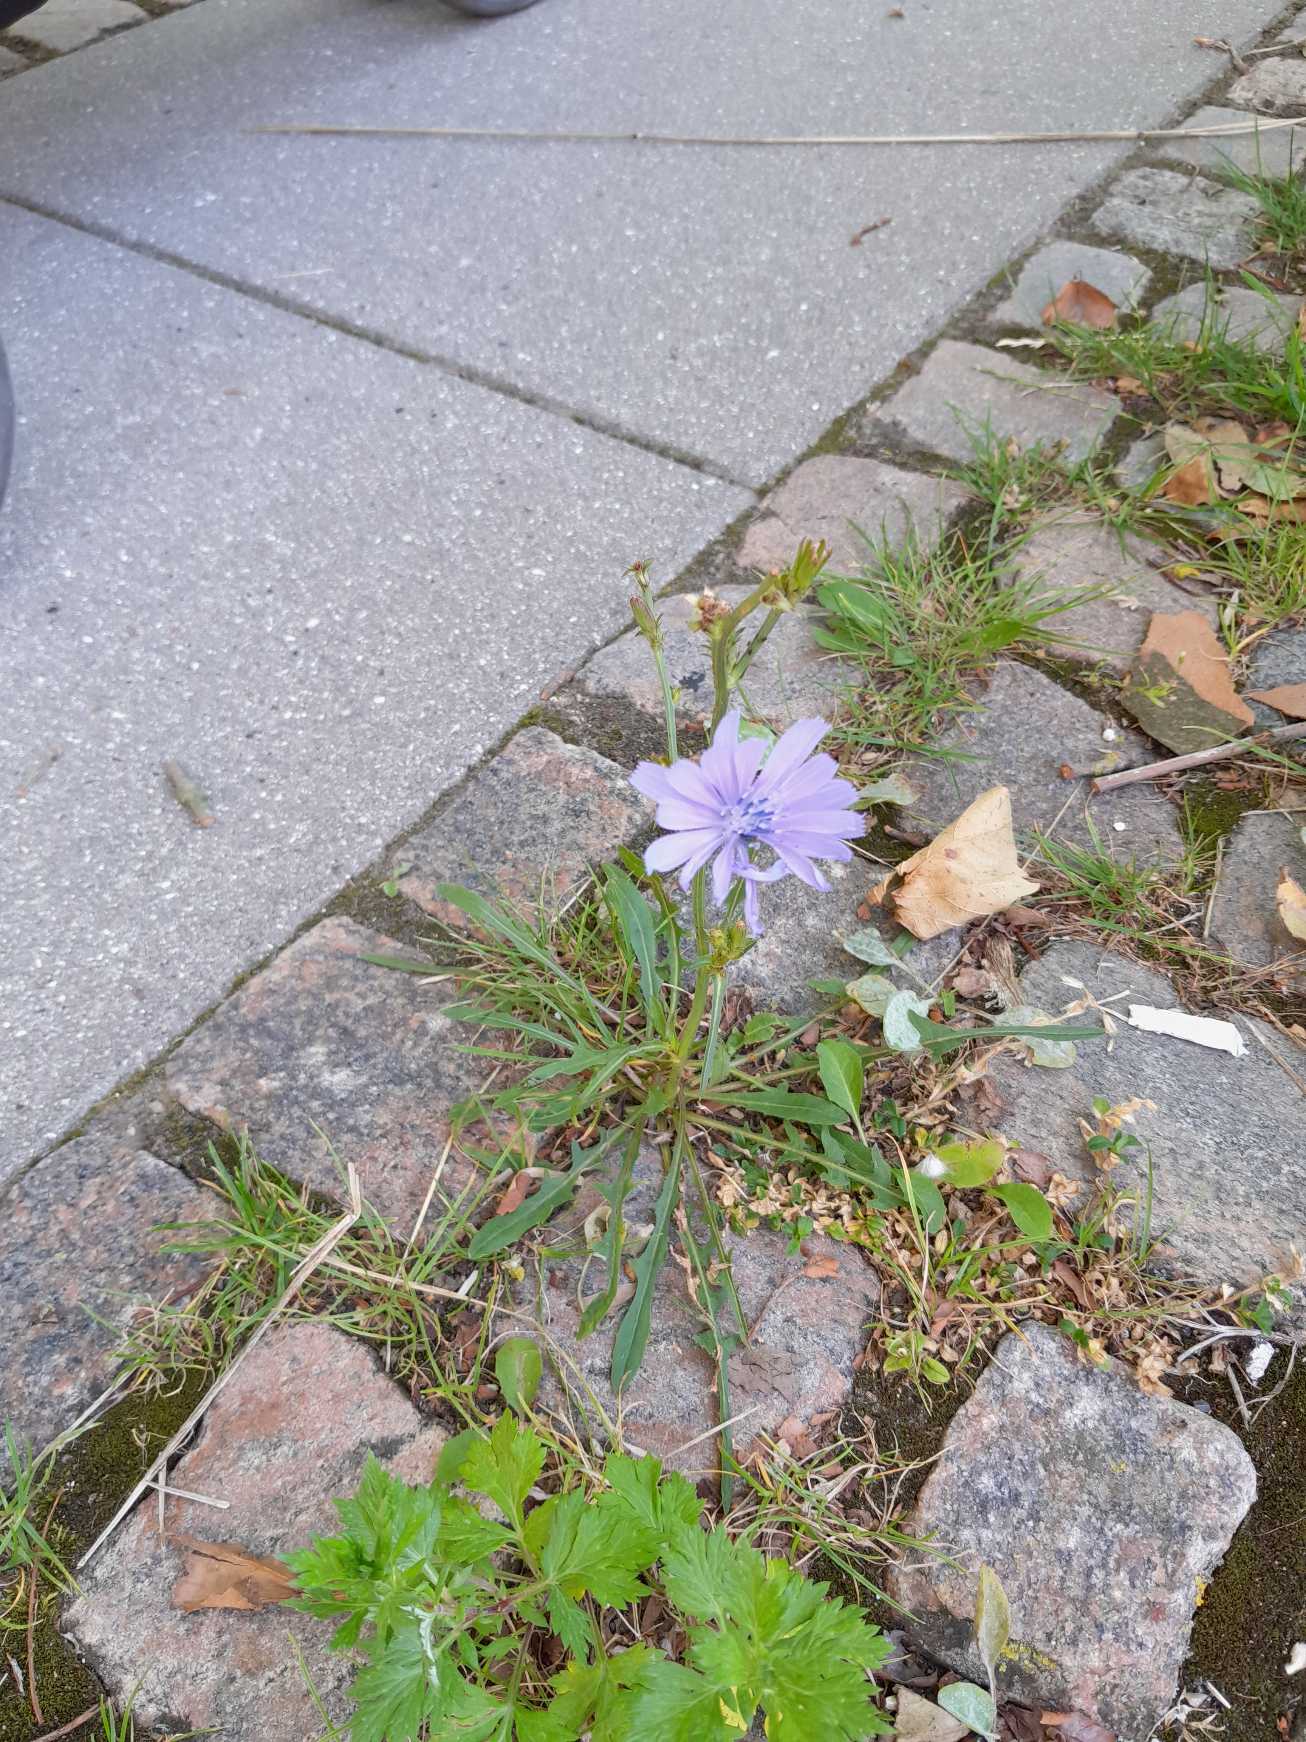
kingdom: Plantae
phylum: Tracheophyta
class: Magnoliopsida
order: Asterales
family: Asteraceae
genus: Cichorium
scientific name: Cichorium intybus
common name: Cikorie
